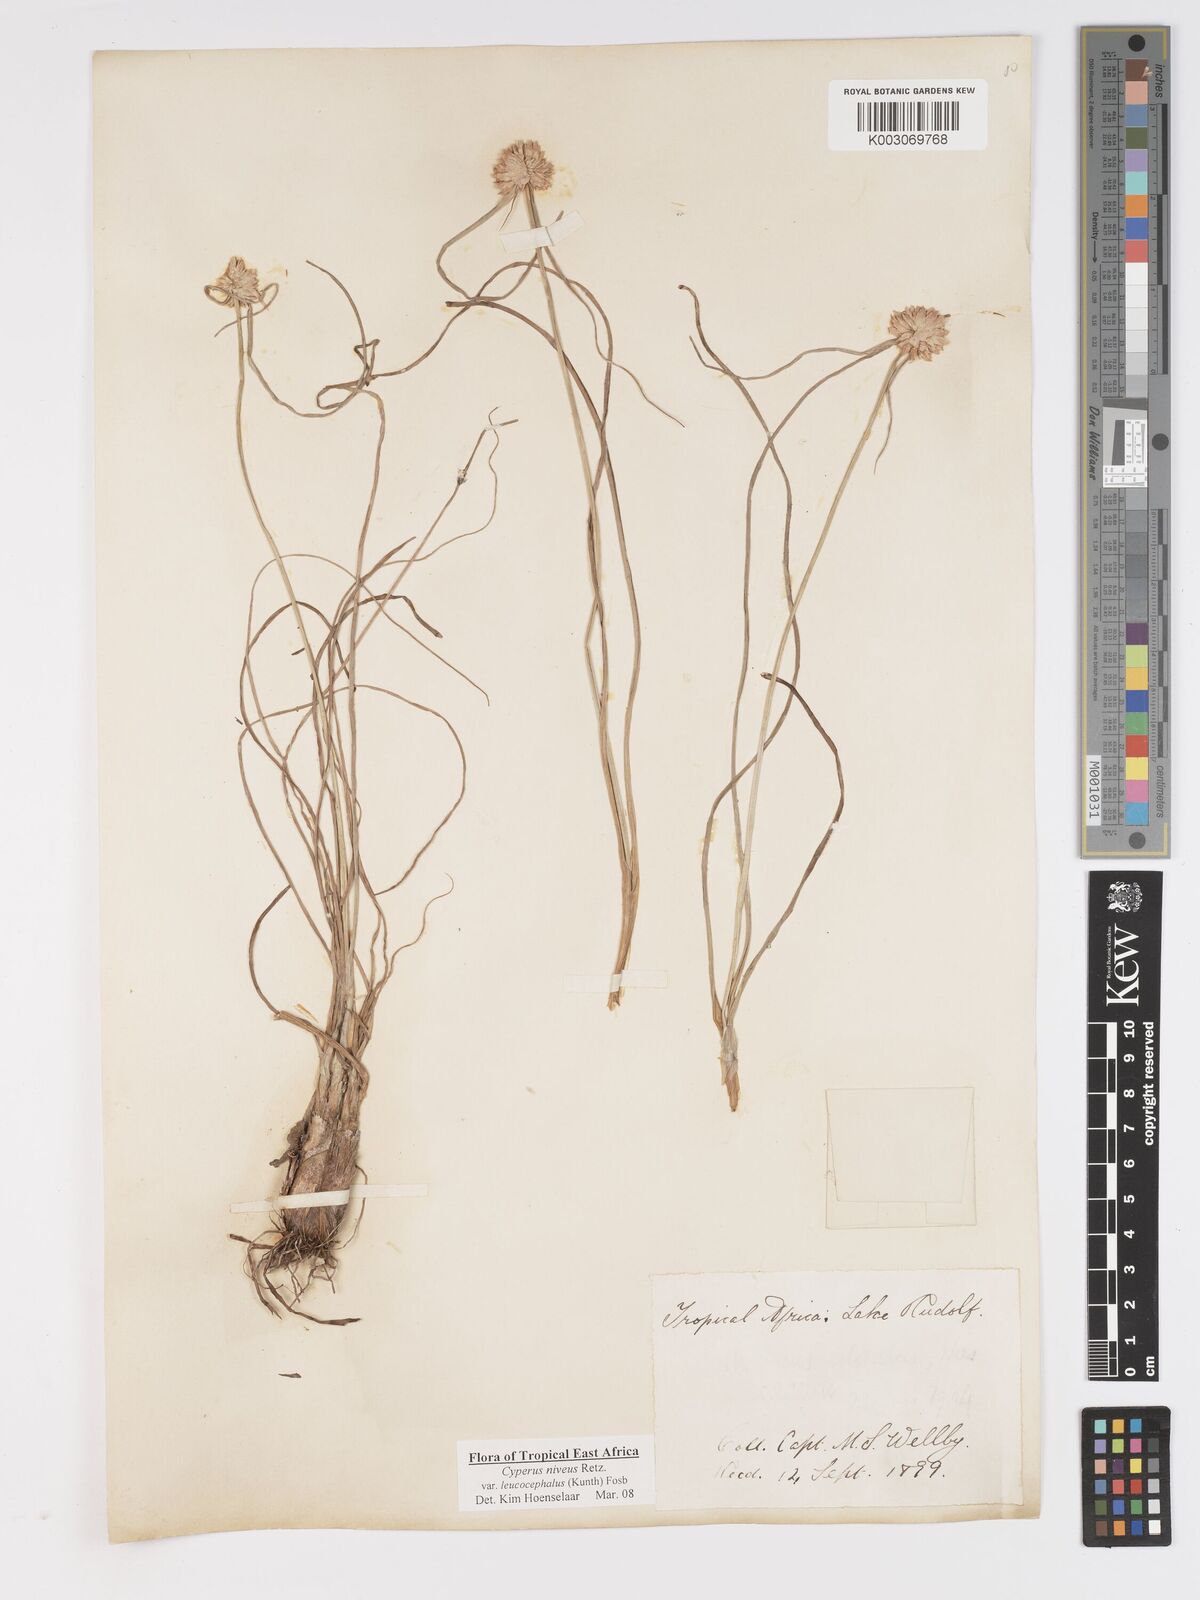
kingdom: Plantae
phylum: Tracheophyta
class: Liliopsida
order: Poales
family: Cyperaceae
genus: Cyperus
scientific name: Cyperus niveus
